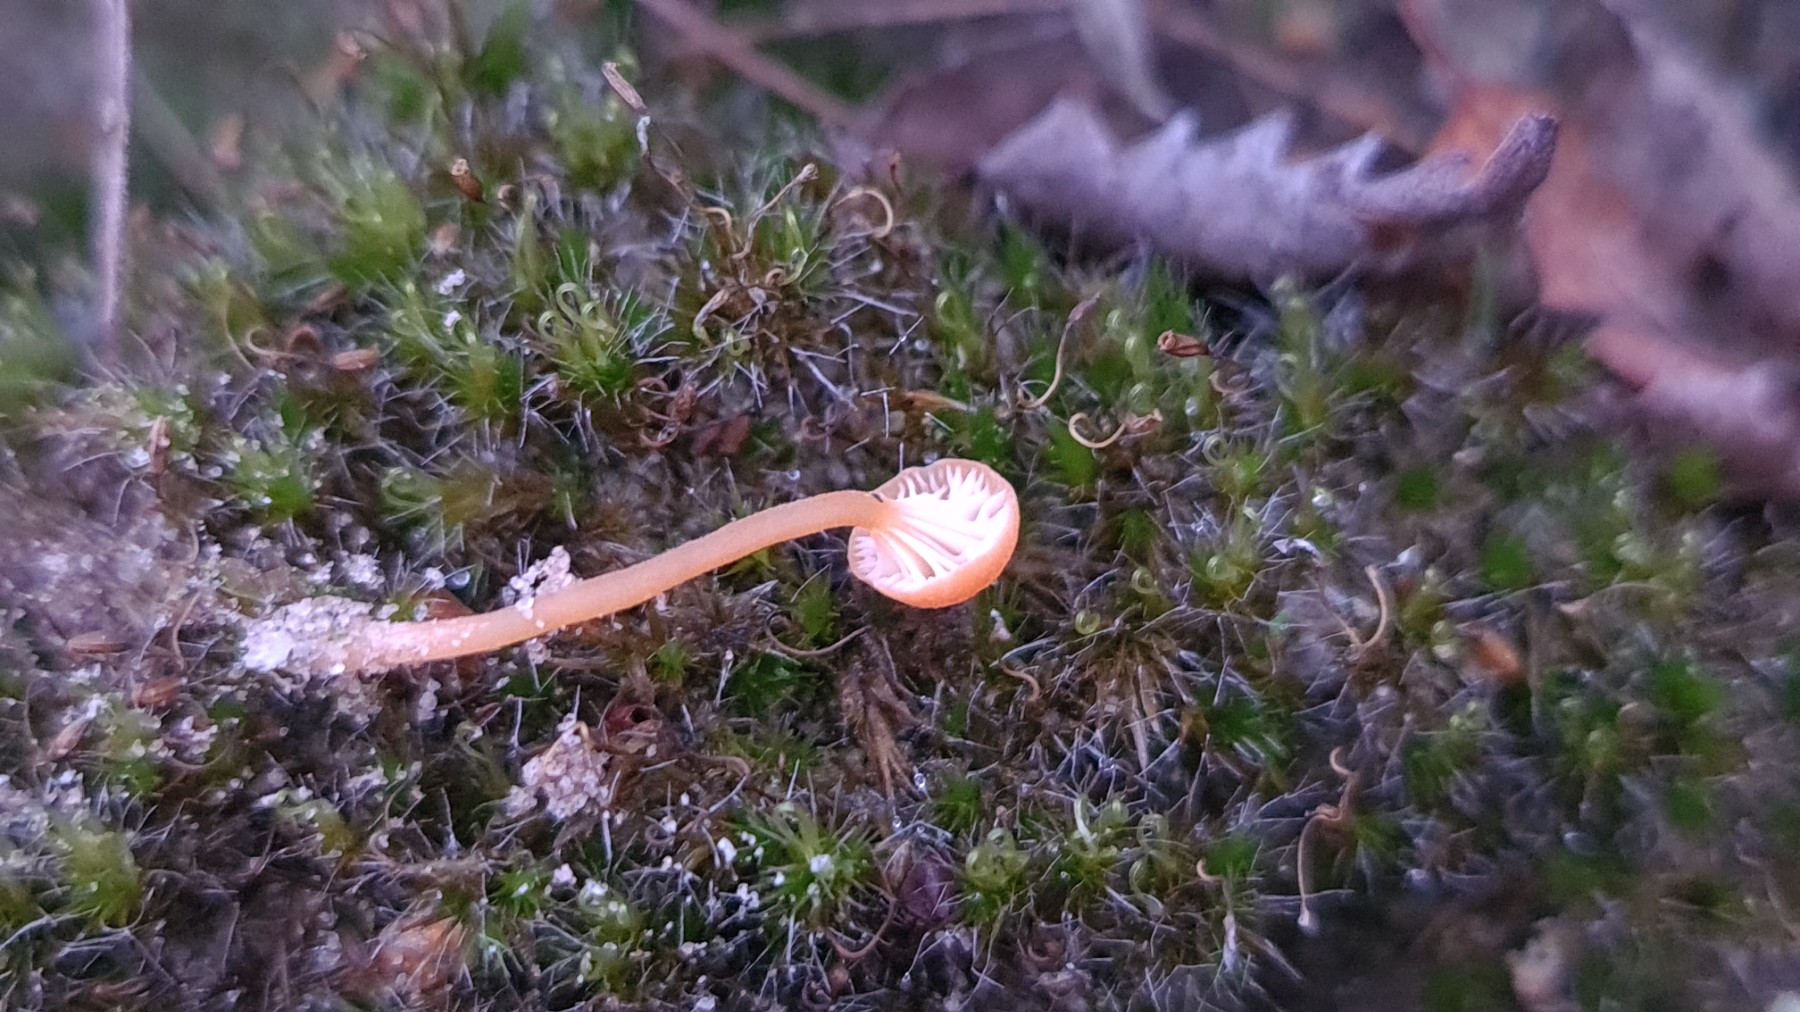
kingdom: Fungi
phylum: Basidiomycota
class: Agaricomycetes
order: Hymenochaetales
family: Rickenellaceae
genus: Rickenella
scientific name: Rickenella fibula
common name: orange mosnavlehat
